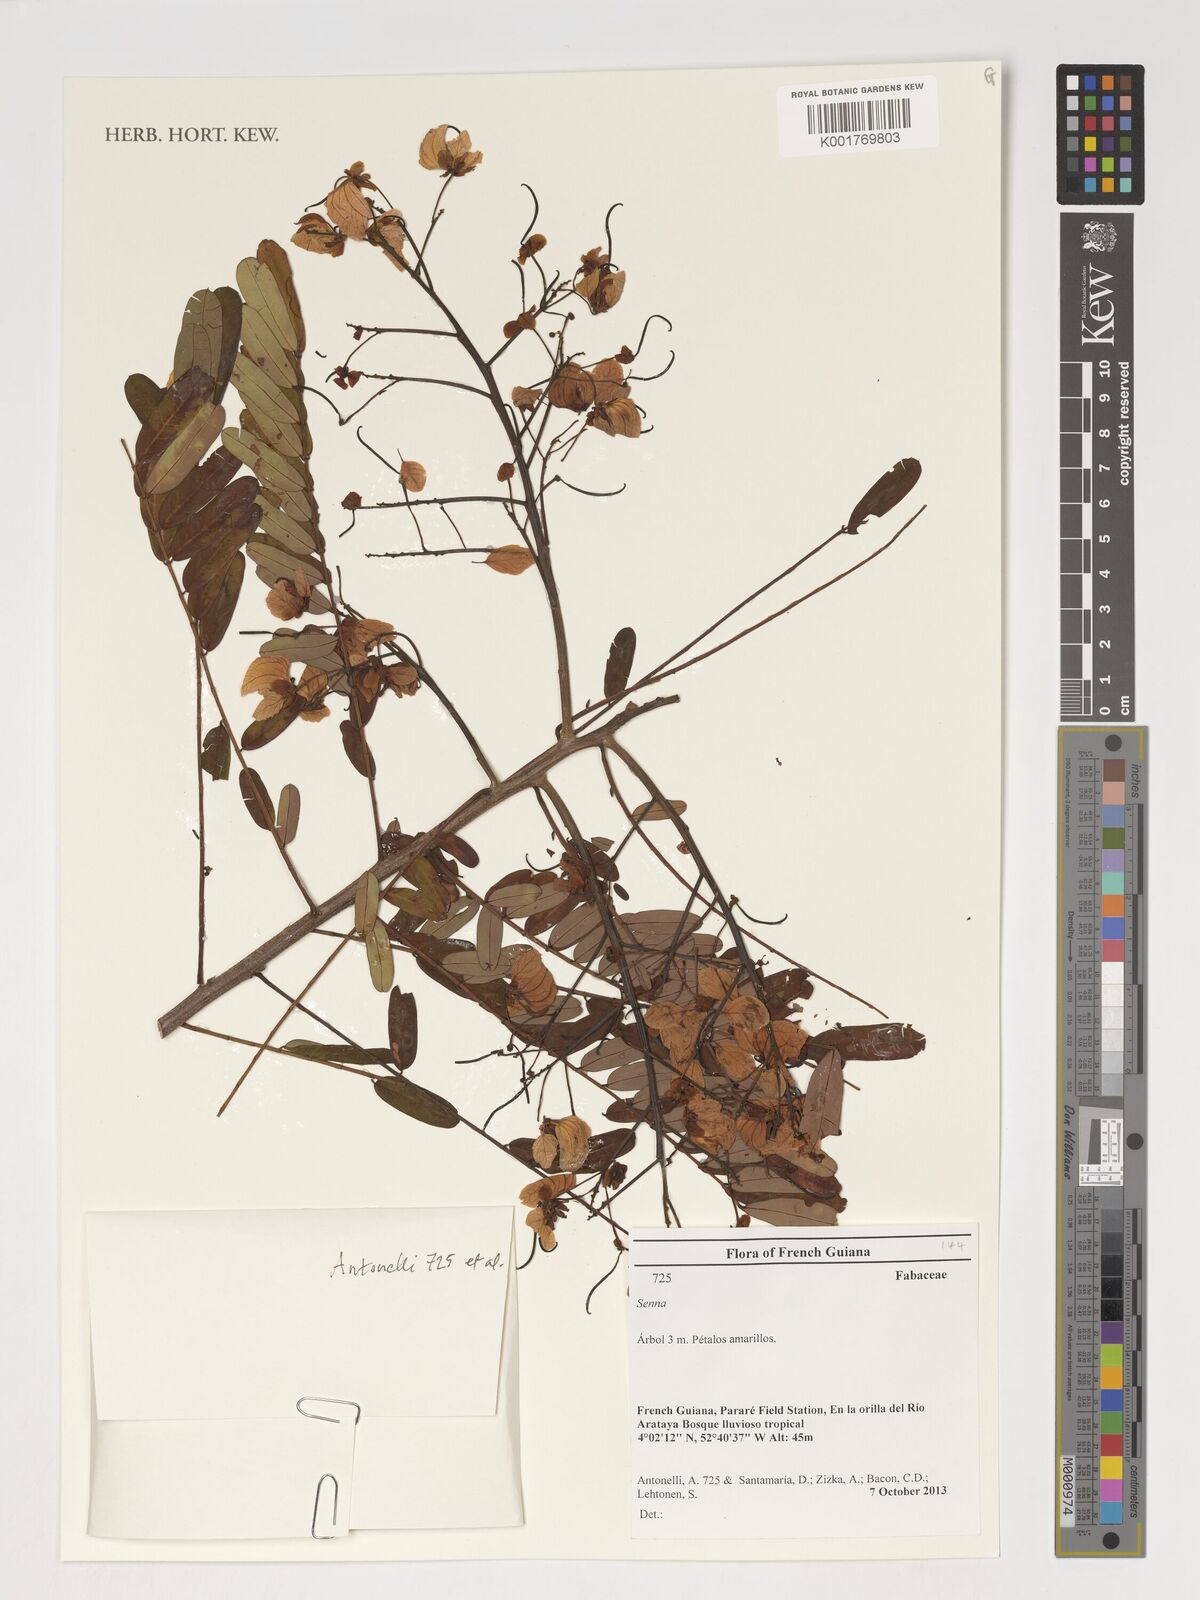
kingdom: Plantae
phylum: Tracheophyta
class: Magnoliopsida
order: Fabales
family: Fabaceae
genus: Senna
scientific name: Senna
